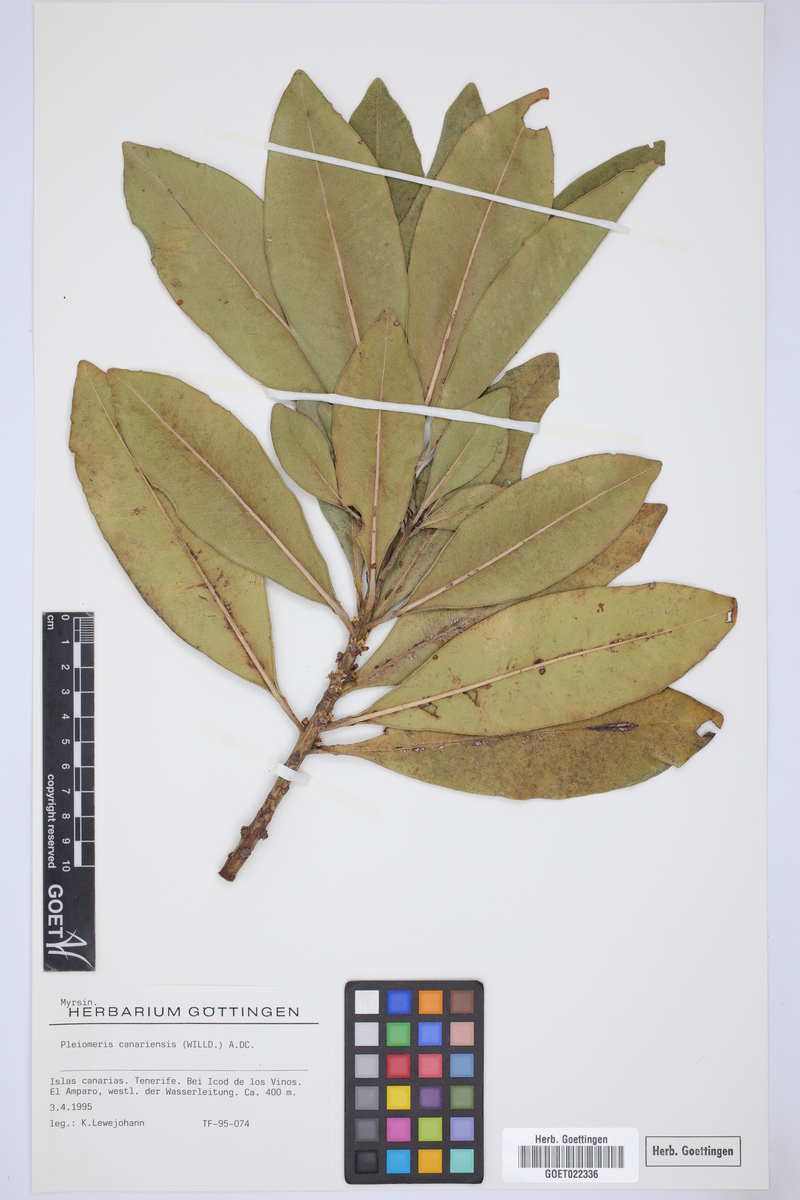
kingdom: Plantae
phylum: Tracheophyta
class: Magnoliopsida
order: Ericales
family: Primulaceae
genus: Pleiomeris
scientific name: Pleiomeris canariensis
